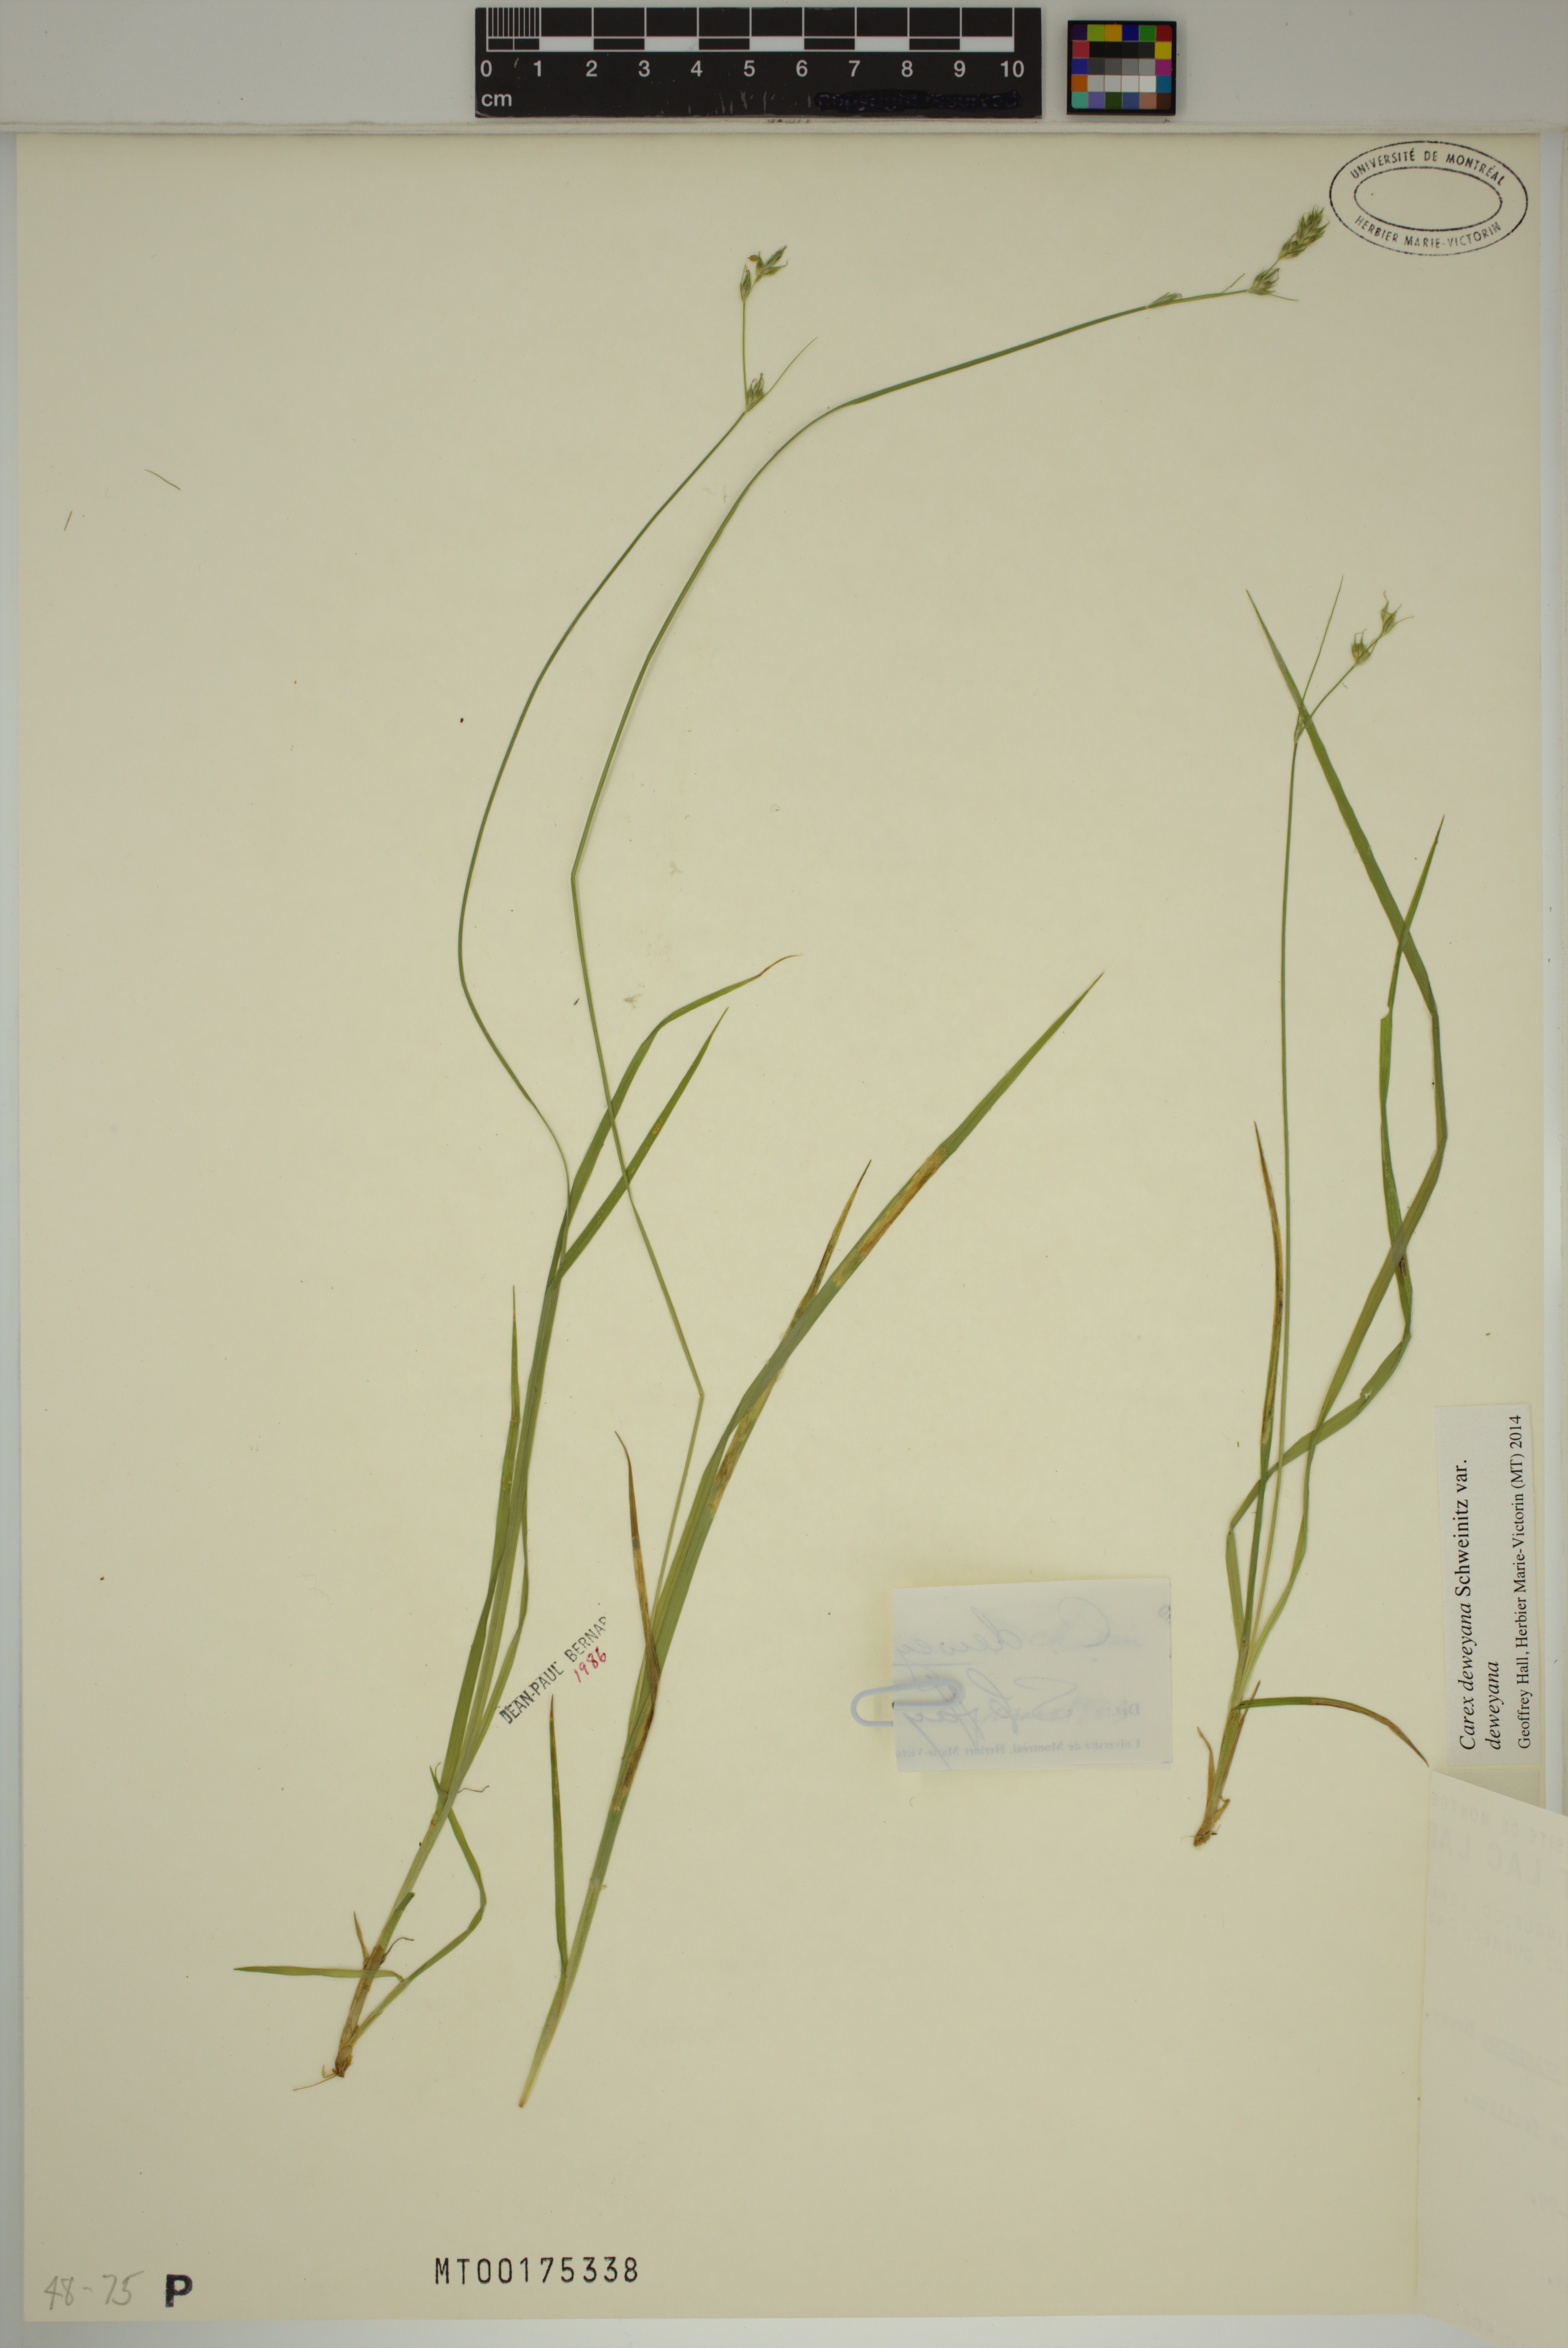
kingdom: Plantae
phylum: Tracheophyta
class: Liliopsida
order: Poales
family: Cyperaceae
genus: Carex
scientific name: Carex deweyana
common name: Dewey's sedge
